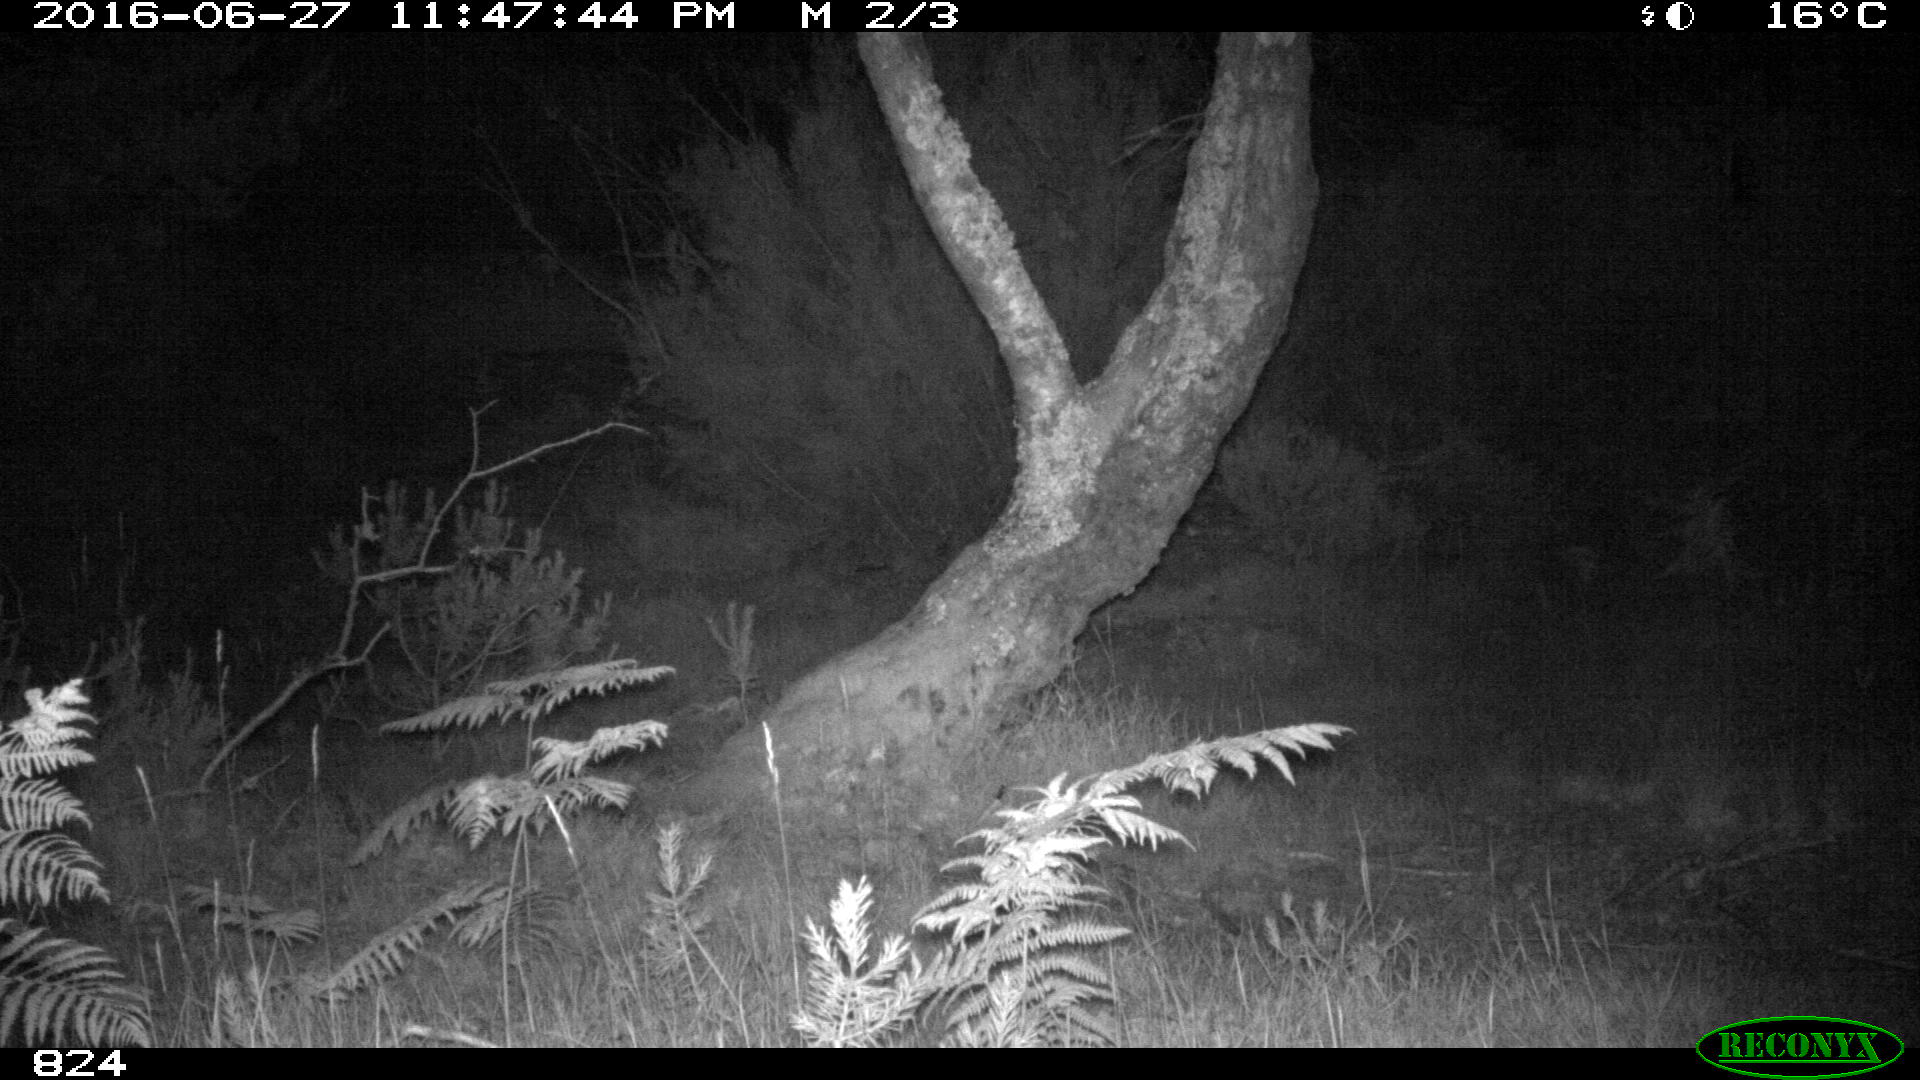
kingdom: Animalia
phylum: Chordata
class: Mammalia
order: Perissodactyla
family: Equidae
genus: Equus
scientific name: Equus caballus
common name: Horse
